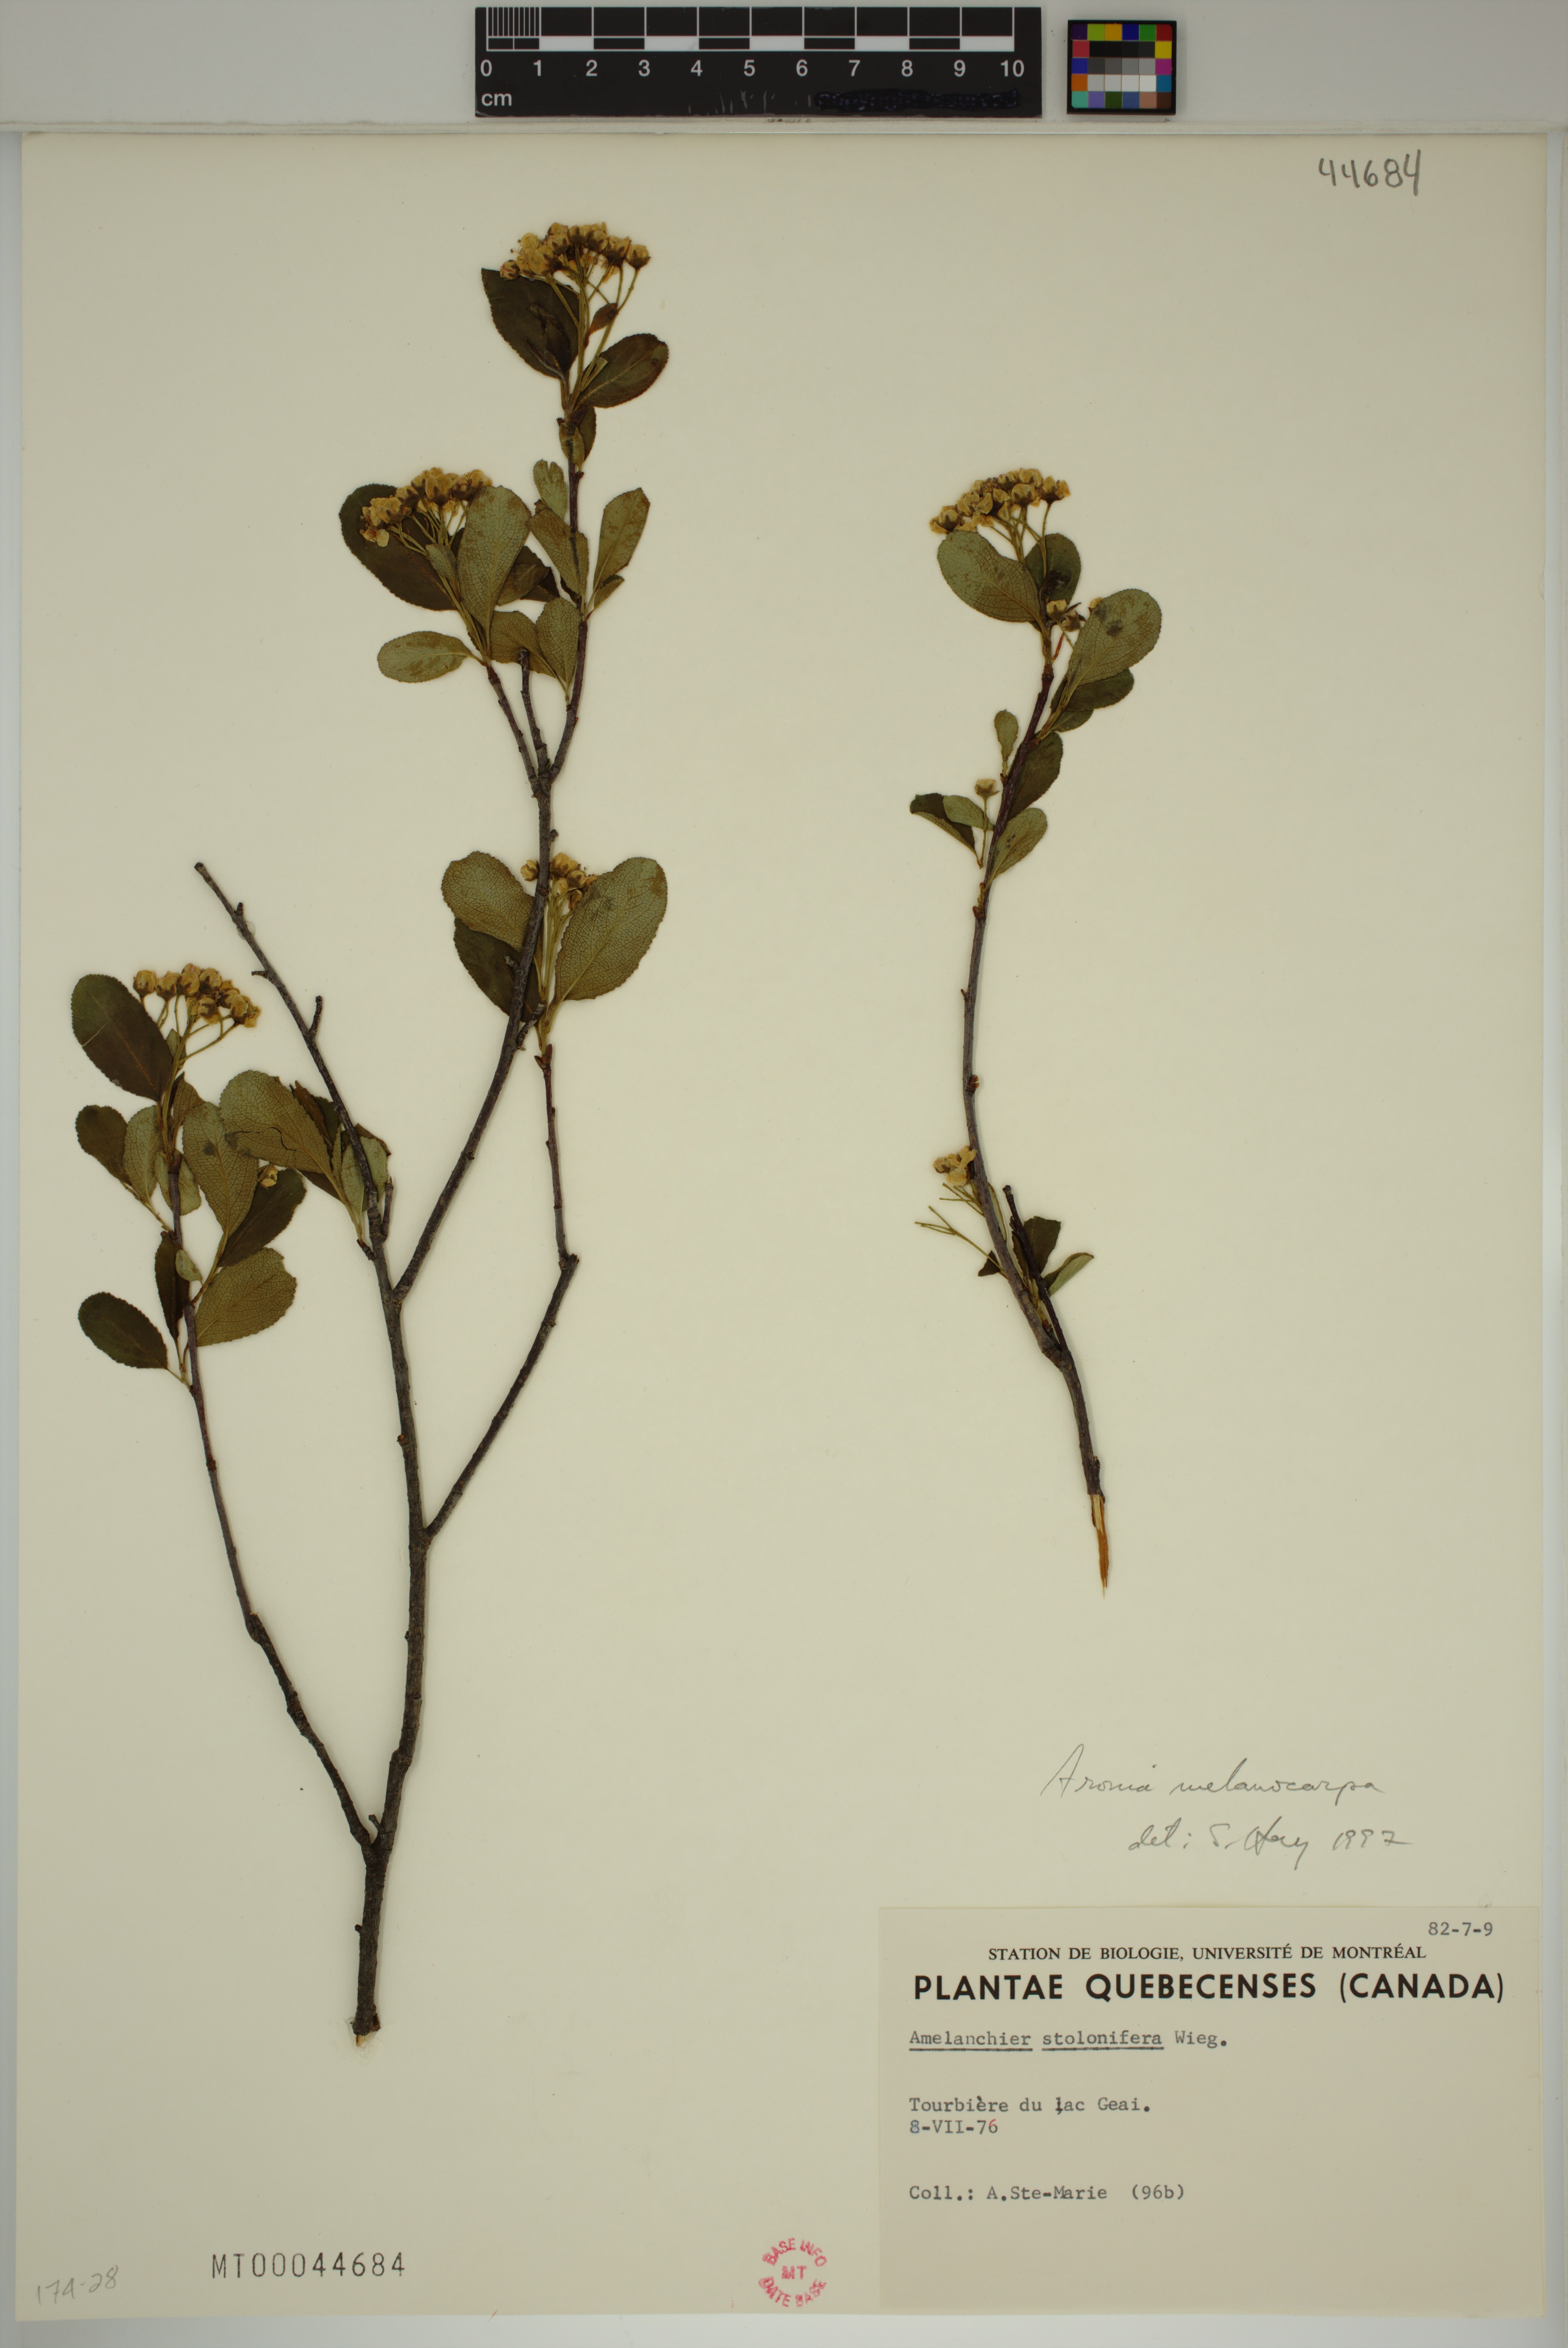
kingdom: Plantae
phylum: Tracheophyta
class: Magnoliopsida
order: Rosales
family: Rosaceae
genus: Aronia
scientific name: Aronia melanocarpa
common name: Black chokeberry
